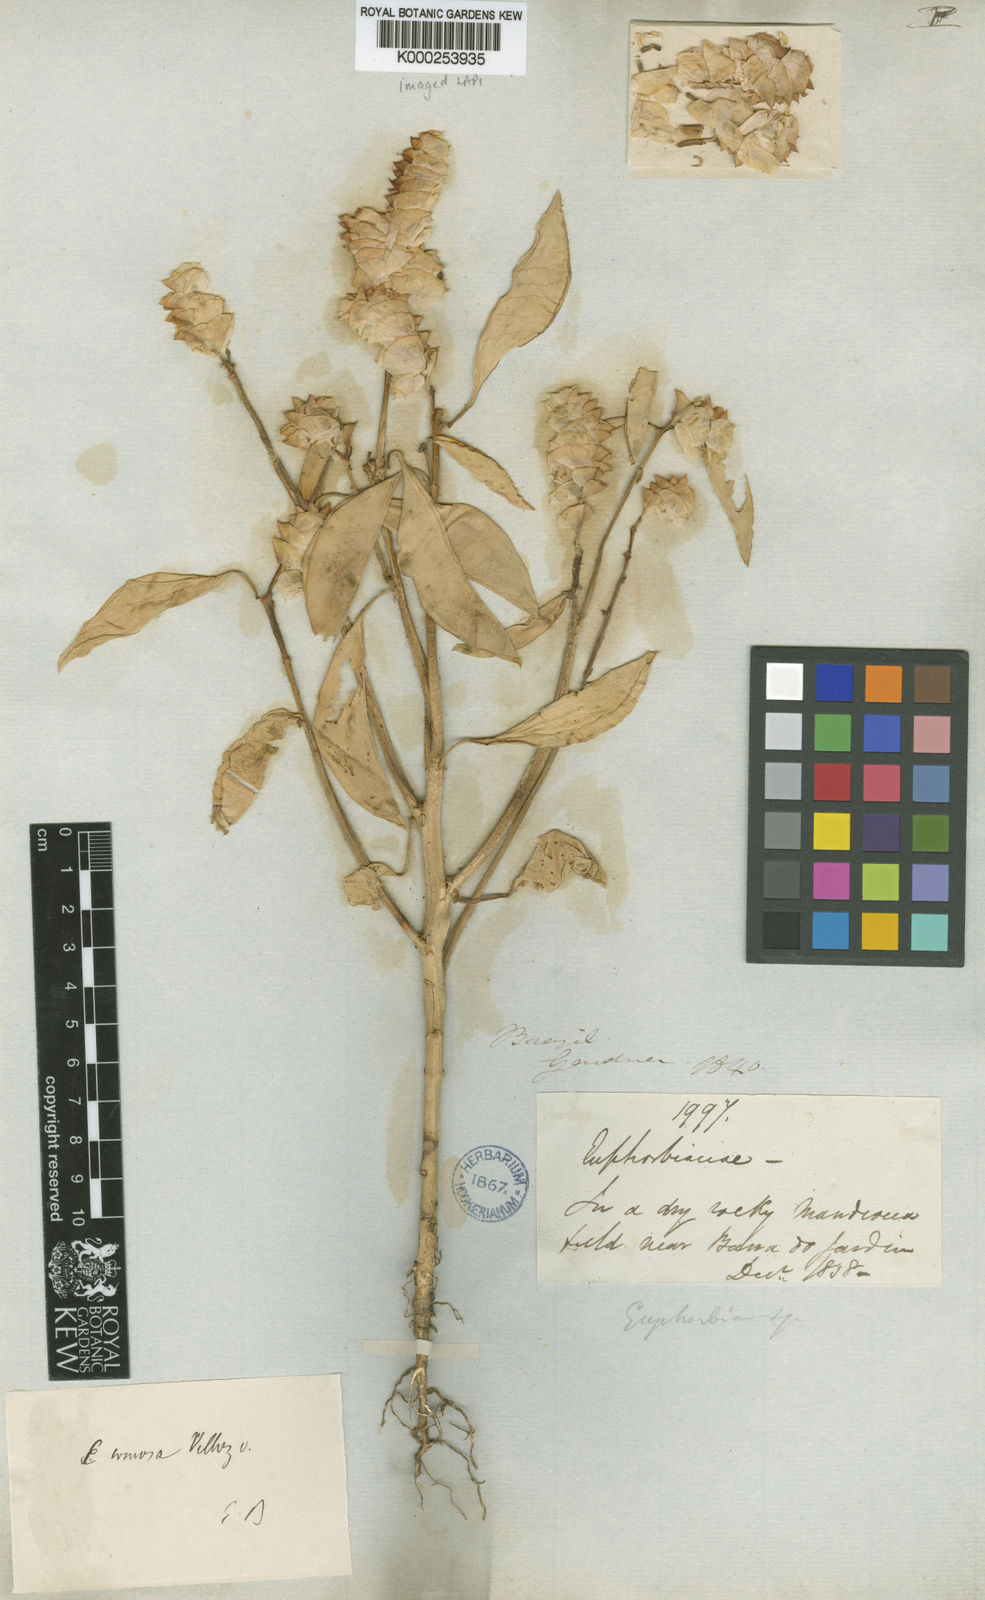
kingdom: Plantae
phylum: Tracheophyta
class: Magnoliopsida
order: Malpighiales
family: Euphorbiaceae
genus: Euphorbia
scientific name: Euphorbia comosa
